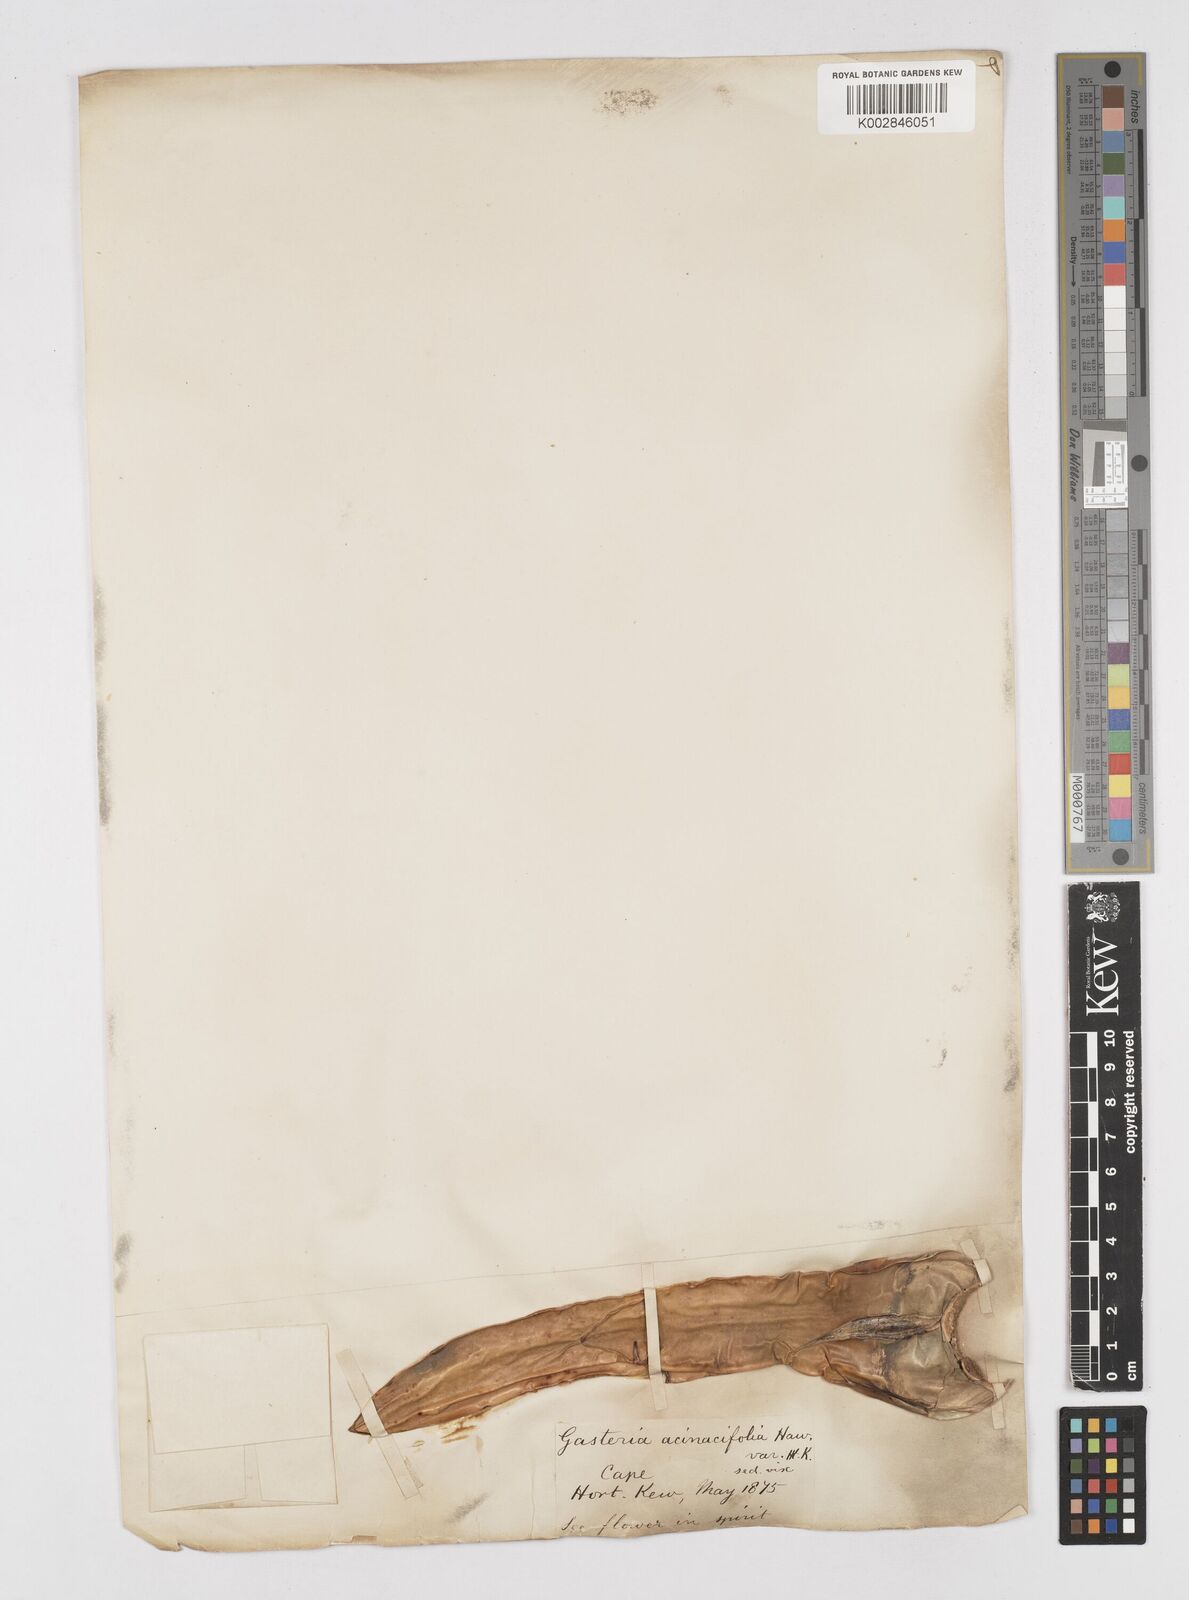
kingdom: Plantae
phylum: Tracheophyta
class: Liliopsida
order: Asparagales
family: Asphodelaceae
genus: Gasteria
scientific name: Gasteria acinacifolia
